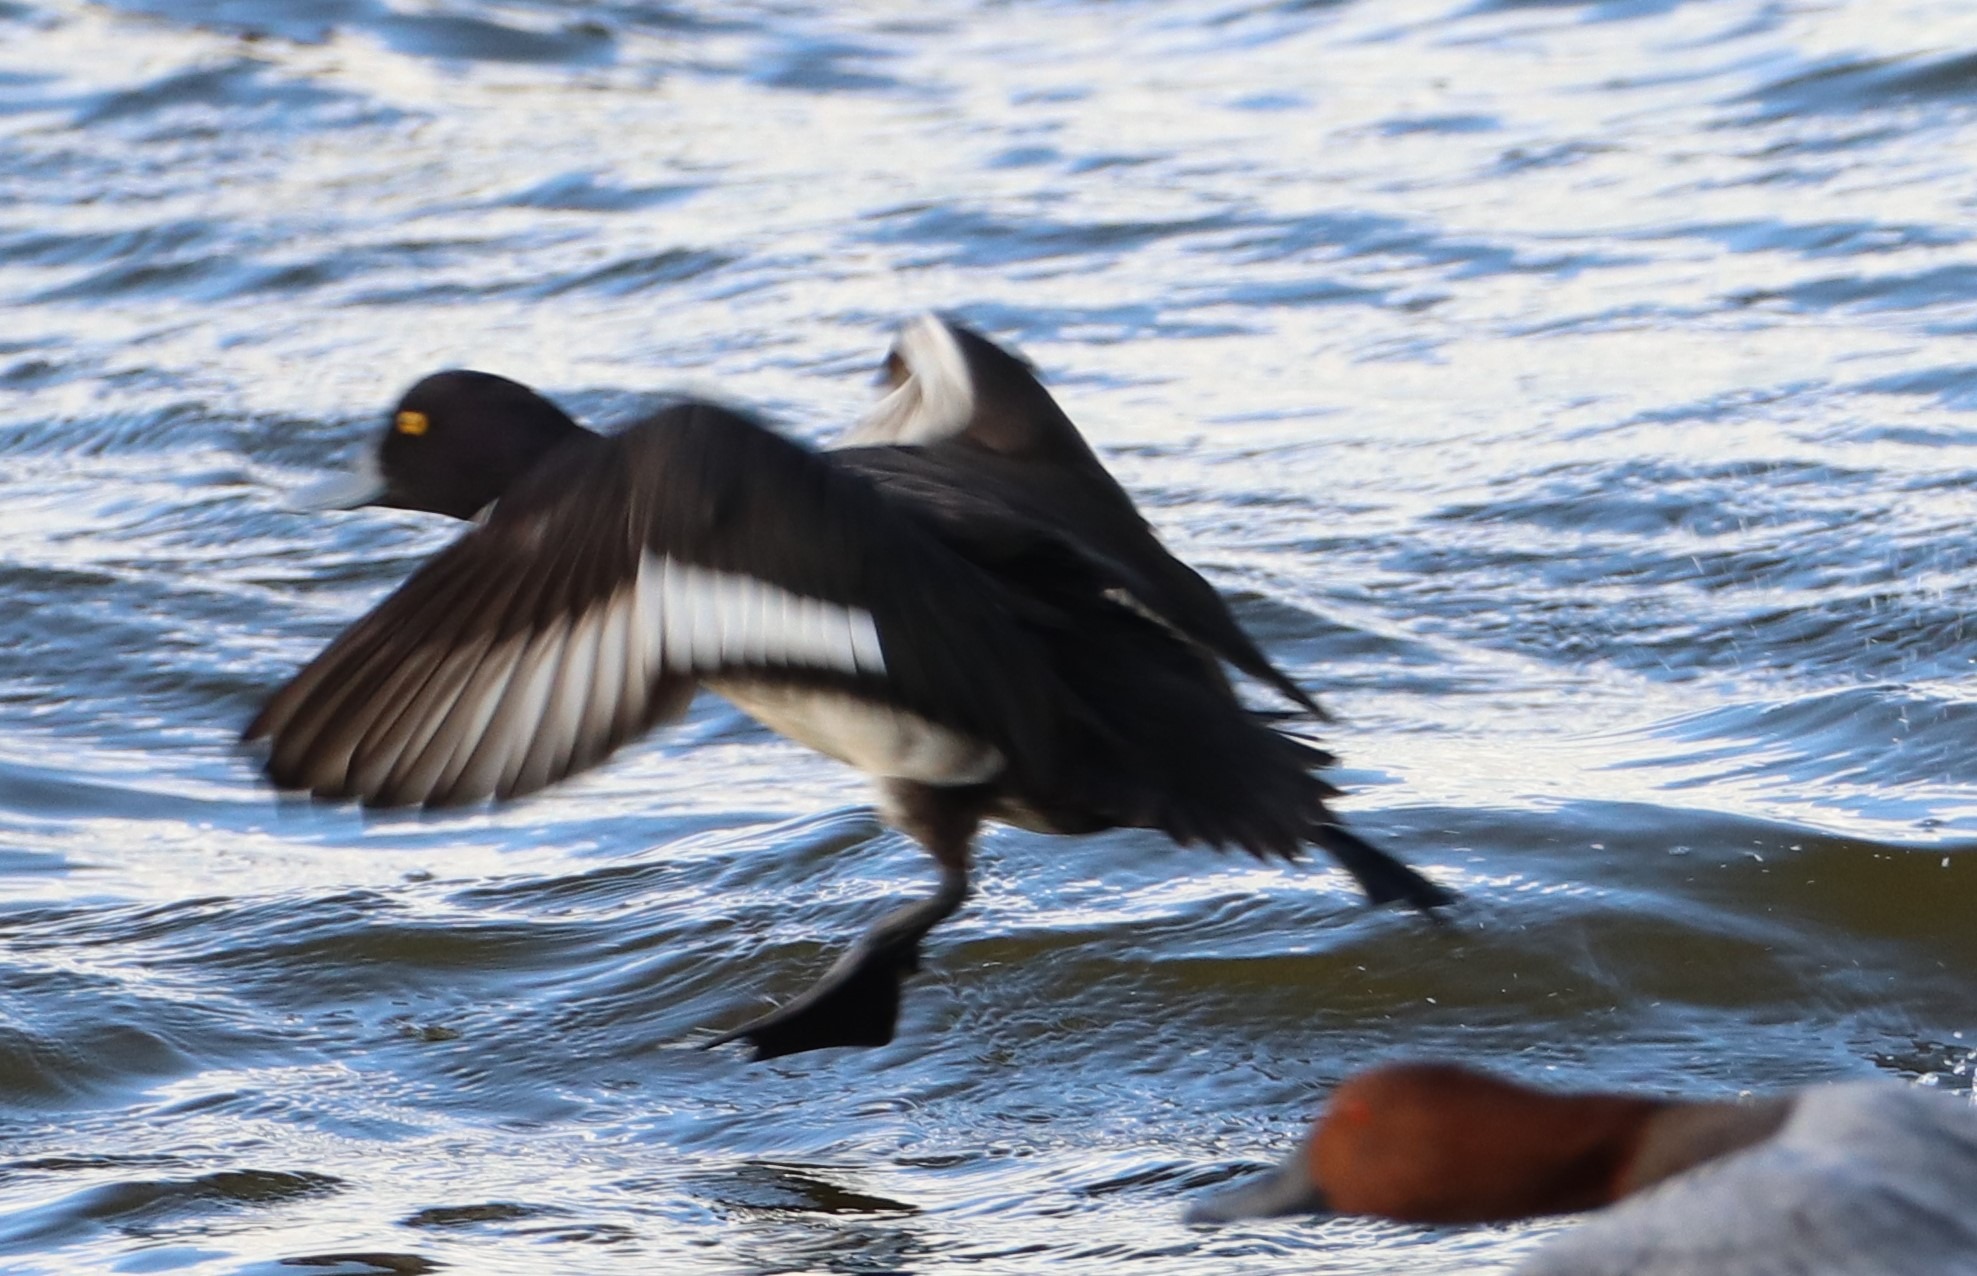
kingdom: Animalia
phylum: Chordata
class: Aves
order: Anseriformes
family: Anatidae
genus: Aythya
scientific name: Aythya fuligula
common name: Troldand
